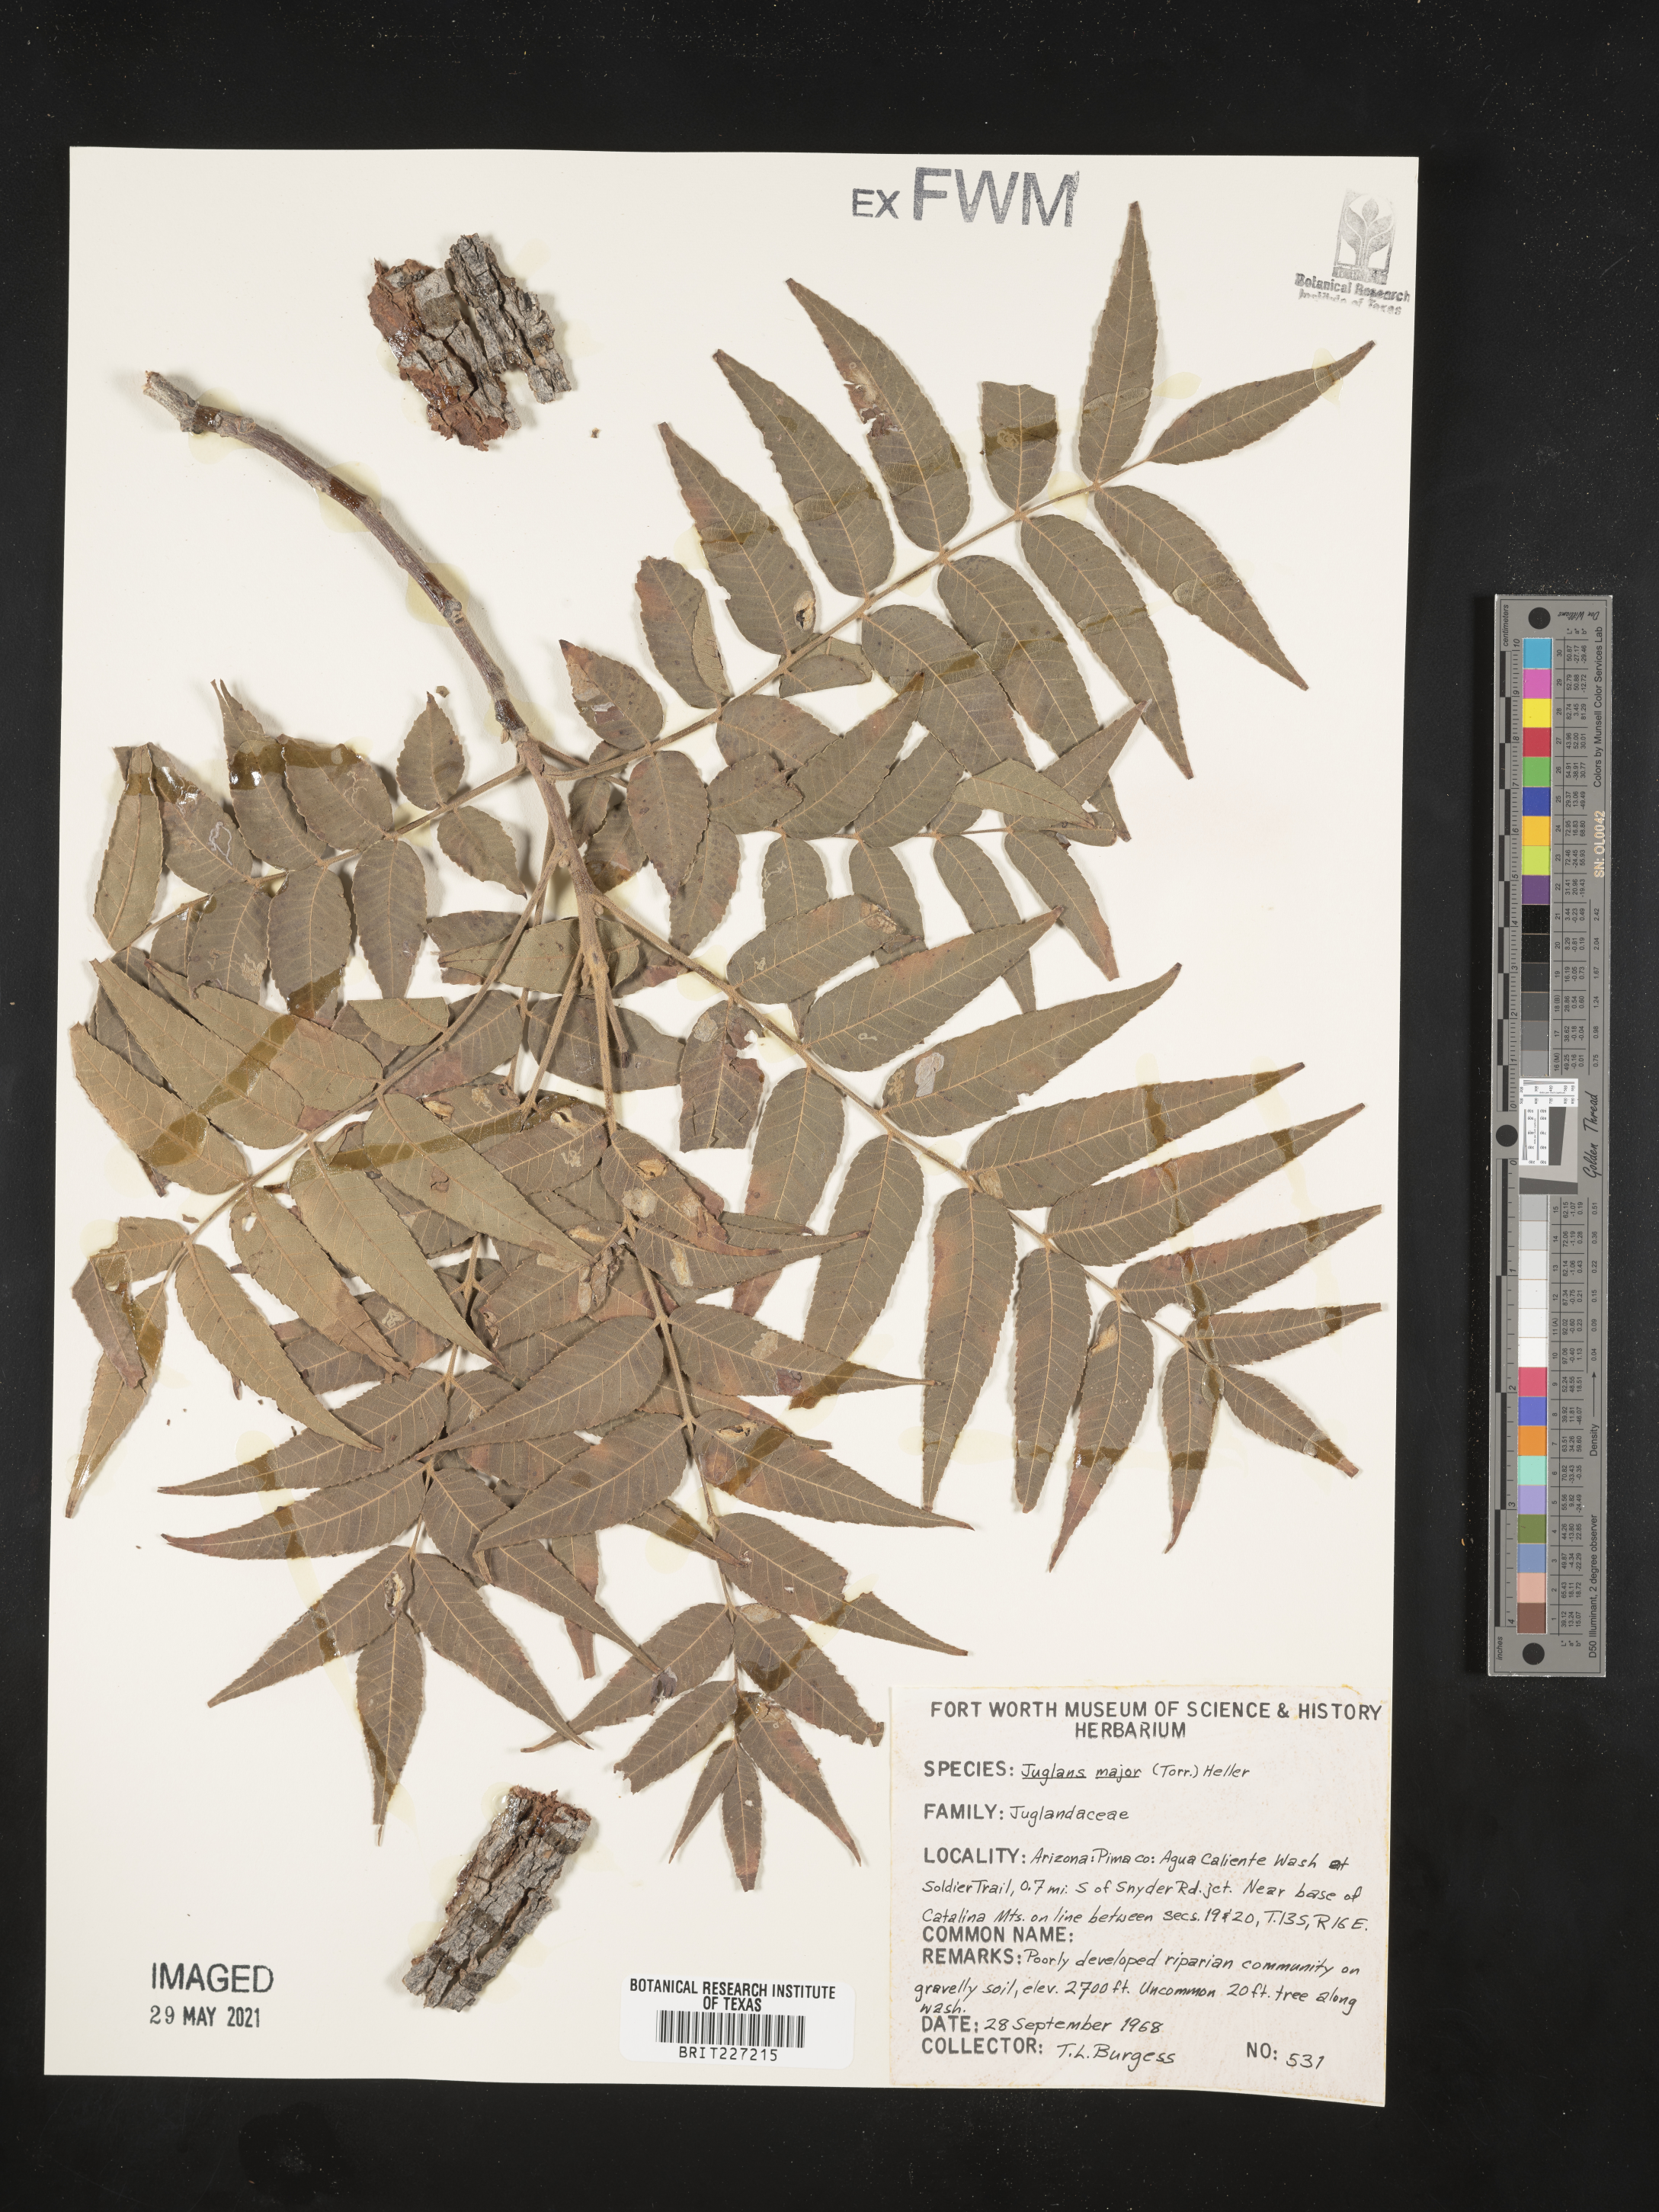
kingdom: Plantae
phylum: Tracheophyta
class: Magnoliopsida
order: Fagales
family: Juglandaceae
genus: Juglans
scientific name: Juglans major
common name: Arizona walnut
